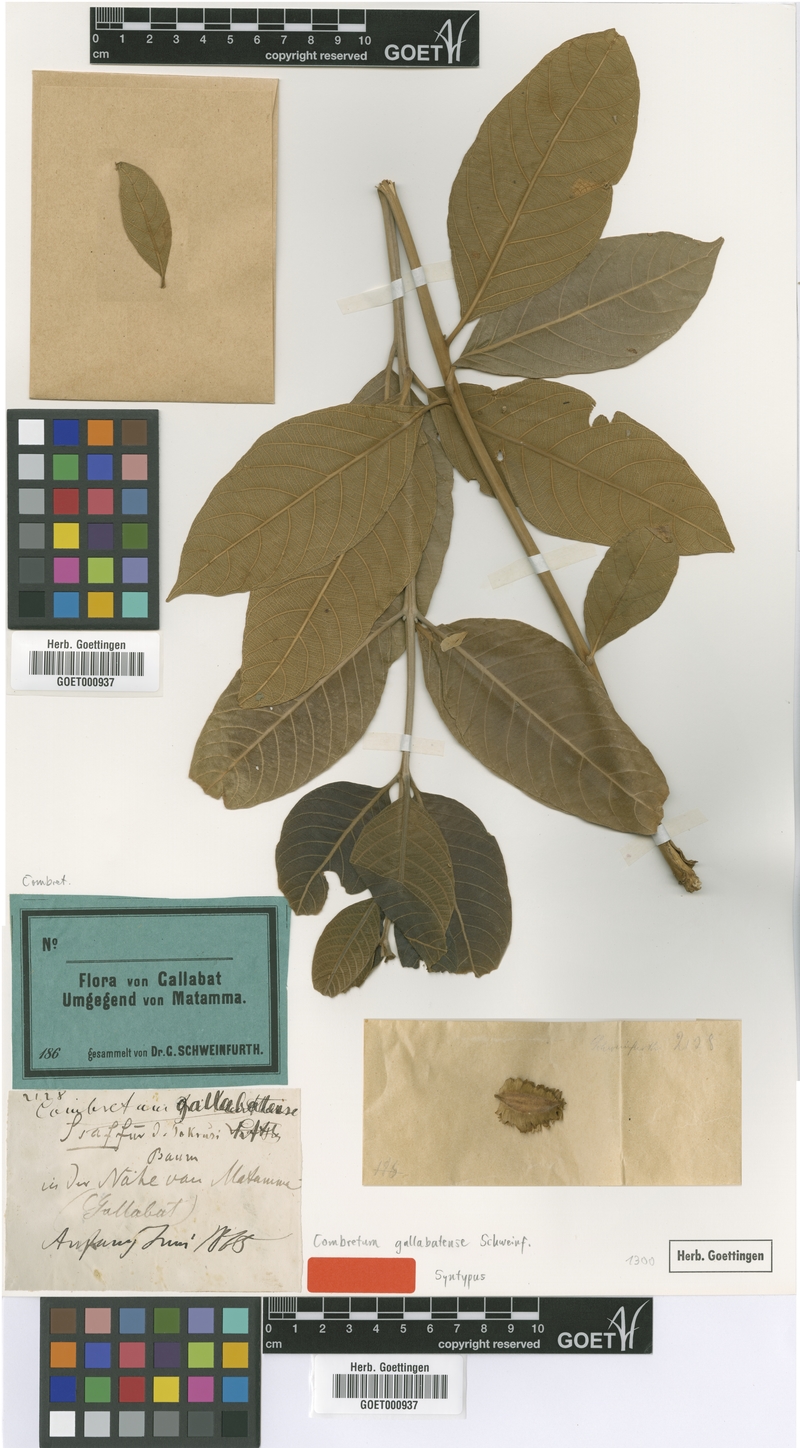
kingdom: Plantae
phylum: Tracheophyta
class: Magnoliopsida
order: Myrtales
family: Combretaceae
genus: Combretum
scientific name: Combretum rochetianum
